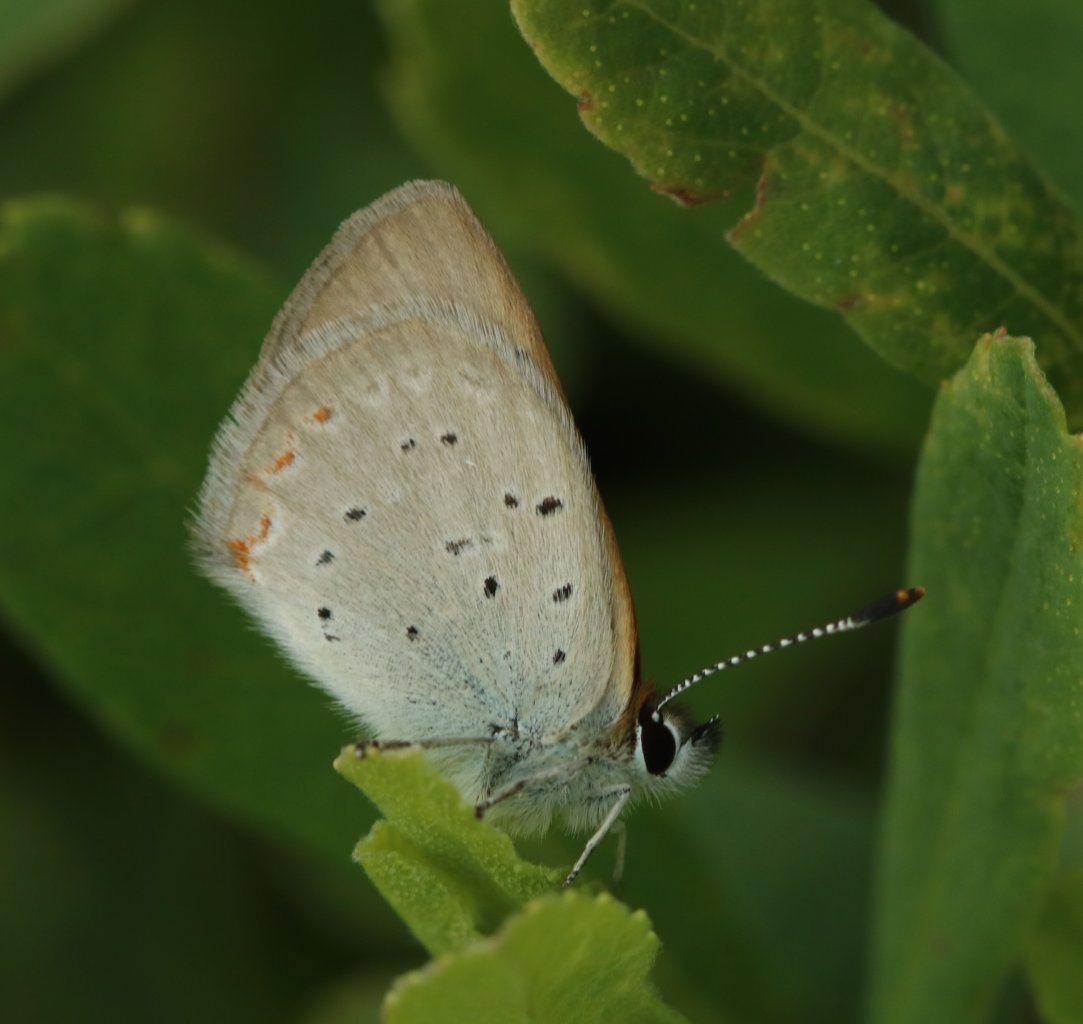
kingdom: Animalia
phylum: Arthropoda
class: Insecta
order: Lepidoptera
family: Sesiidae
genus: Sesia
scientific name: Sesia Lycaena epixanthe
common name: Bog Copper
